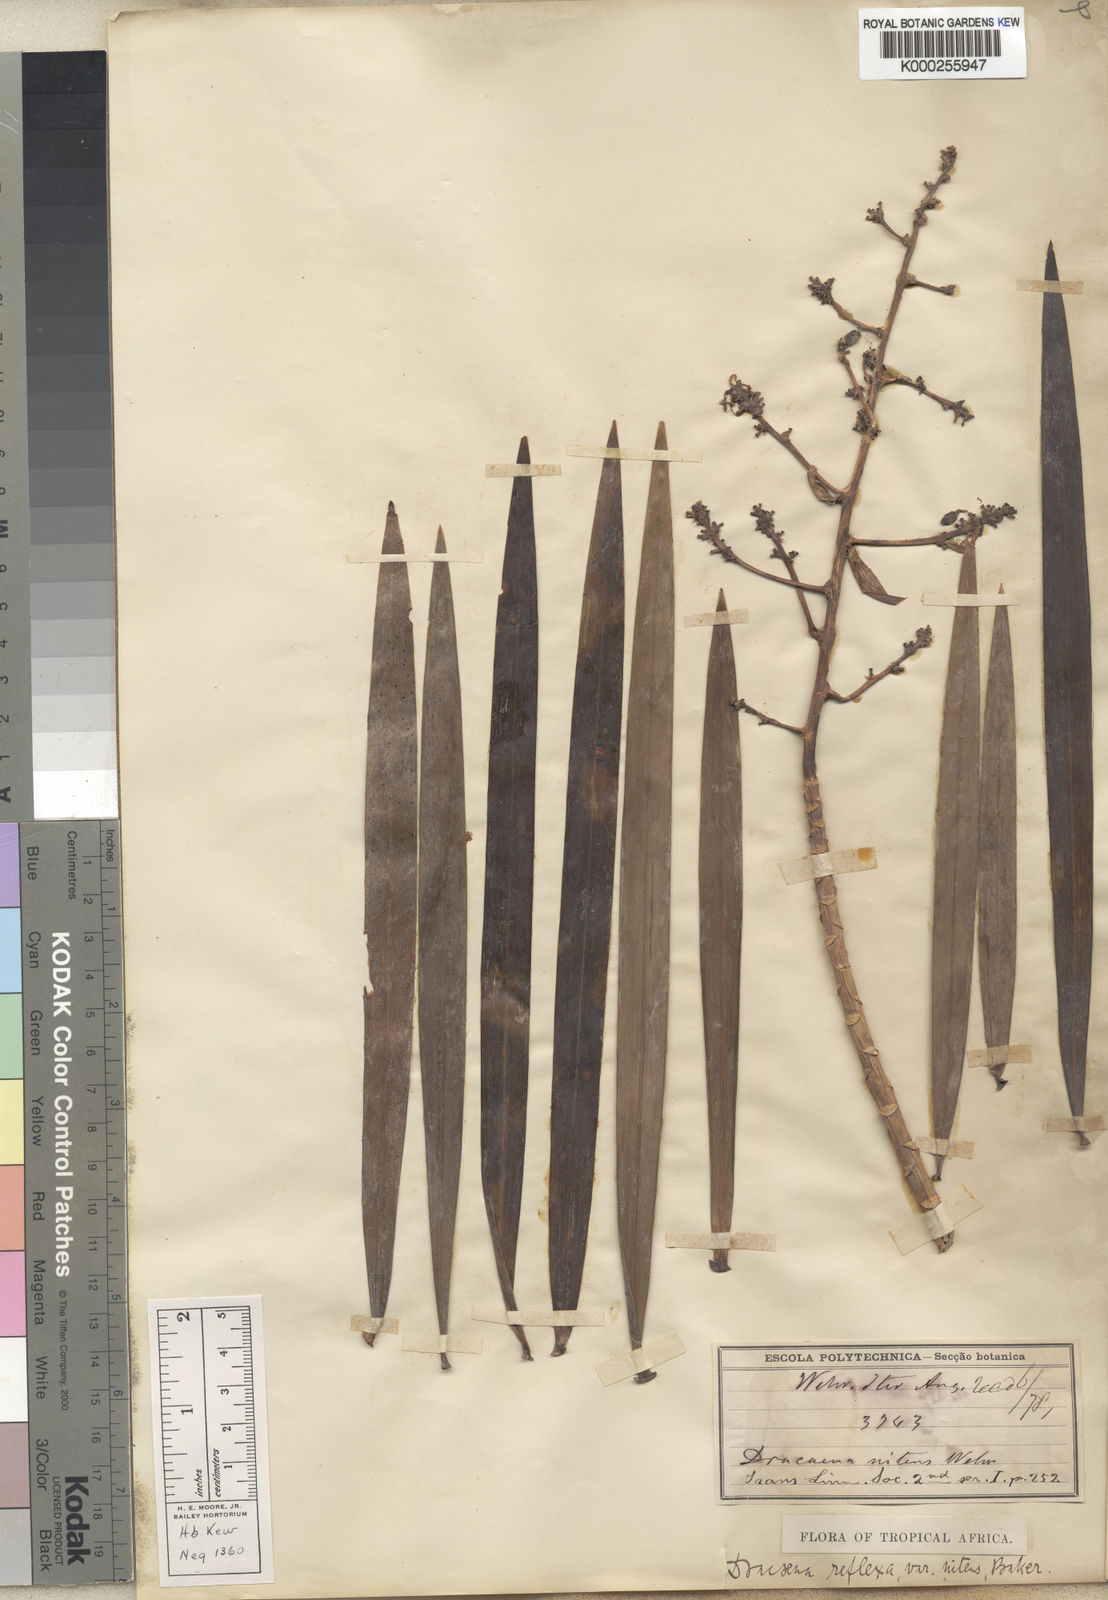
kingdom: Plantae
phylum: Tracheophyta
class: Liliopsida
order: Asparagales
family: Asparagaceae
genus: Dracaena
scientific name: Dracaena nitens
